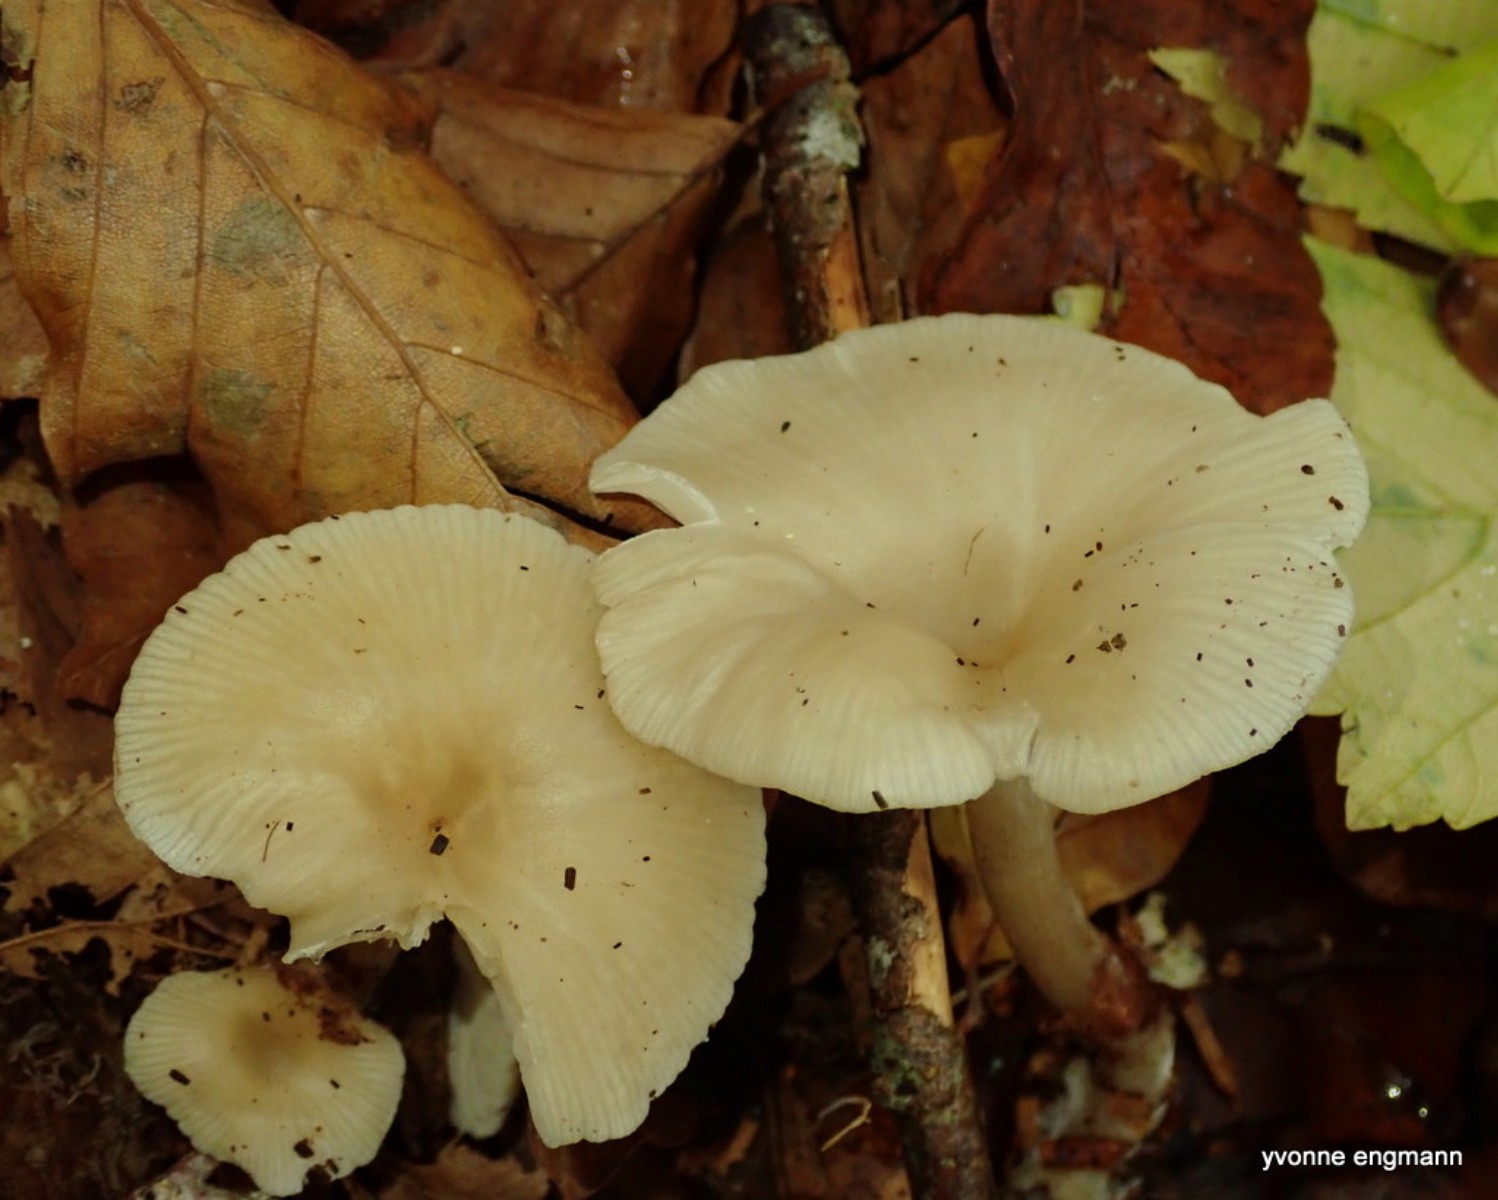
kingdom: Fungi
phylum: Basidiomycota
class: Agaricomycetes
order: Agaricales
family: Tricholomataceae
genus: Clitocybe
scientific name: Clitocybe
